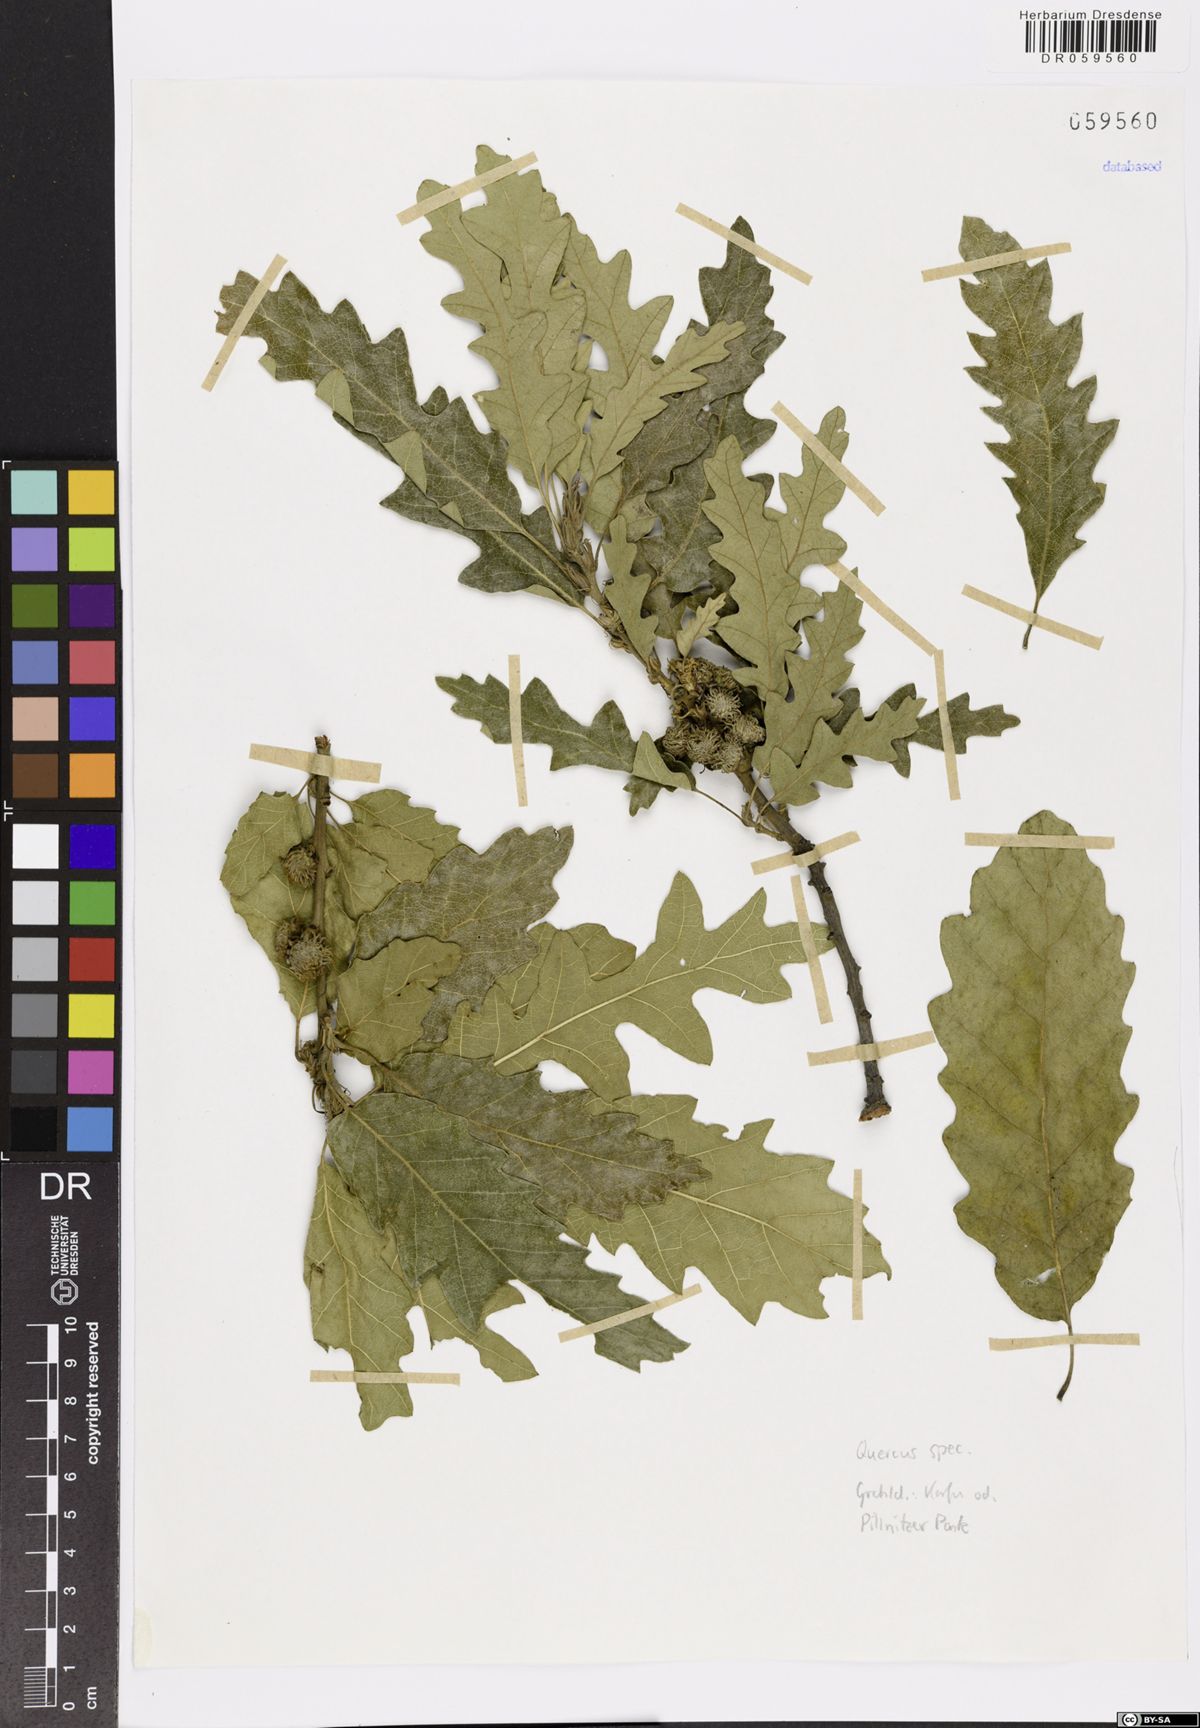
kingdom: Plantae
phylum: Tracheophyta
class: Magnoliopsida
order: Fagales
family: Fagaceae
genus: Quercus
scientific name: Quercus
